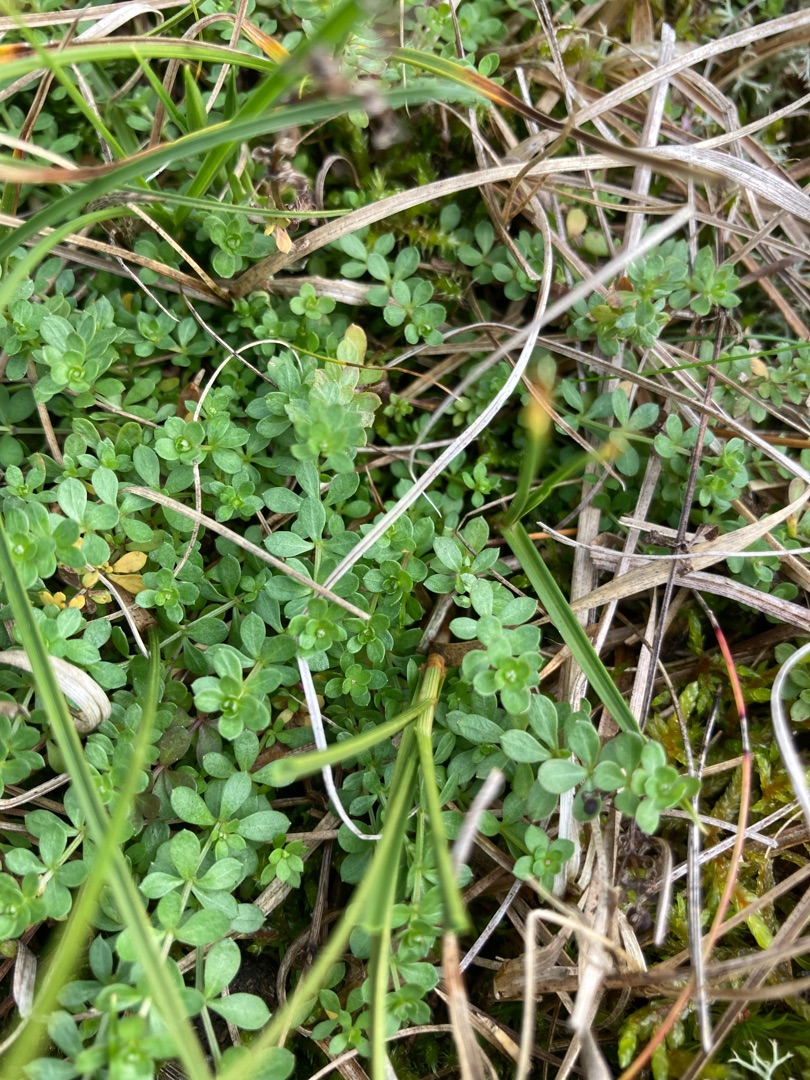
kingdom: Plantae
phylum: Tracheophyta
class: Magnoliopsida
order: Gentianales
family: Rubiaceae
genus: Galium
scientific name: Galium saxatile
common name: Lyng-snerre
